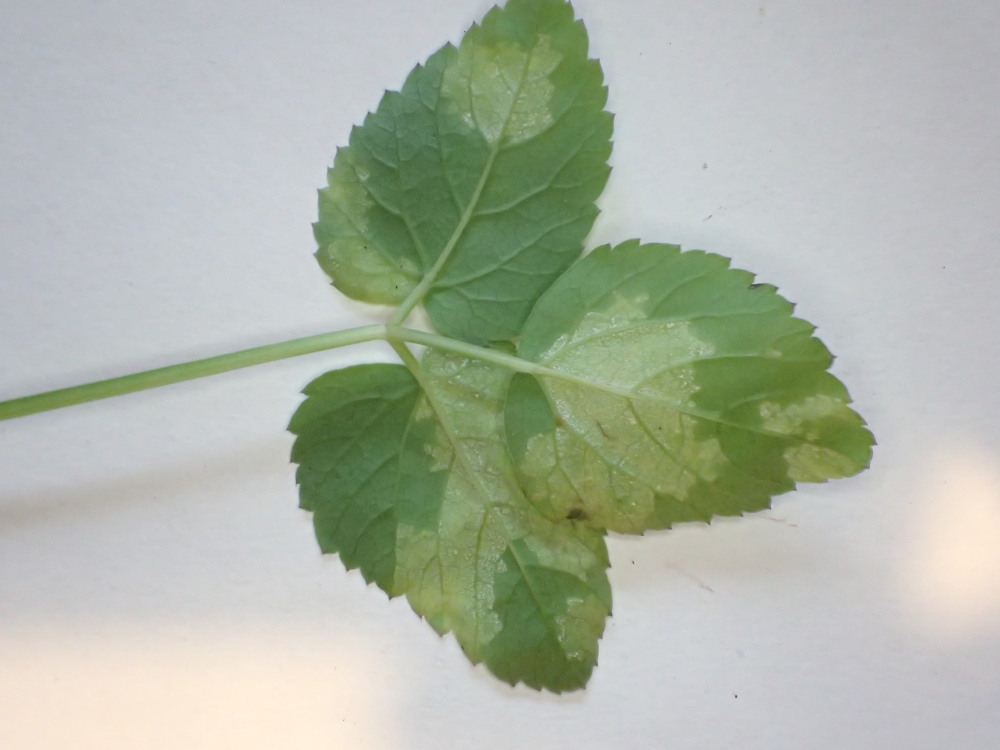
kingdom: Chromista
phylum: Oomycota
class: Peronosporea
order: Peronosporales
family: Peronosporaceae
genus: Peronospora
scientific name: Peronospora crustosa
